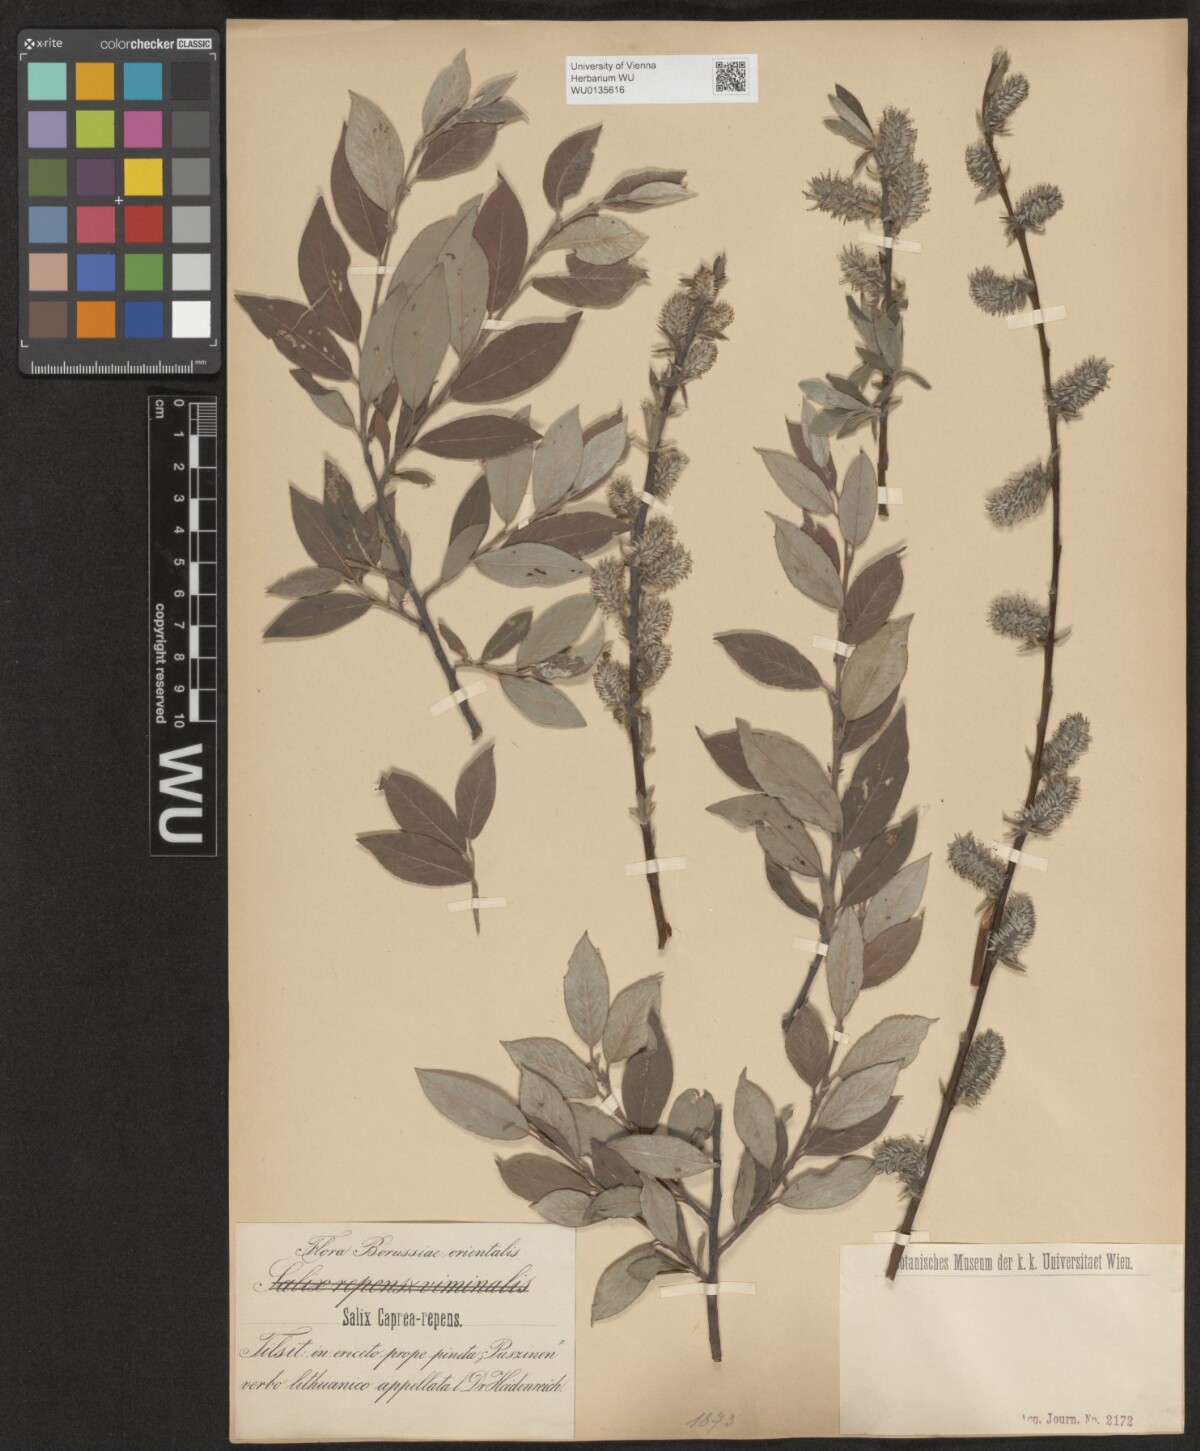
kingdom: Plantae
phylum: Tracheophyta
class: Magnoliopsida
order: Malpighiales
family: Salicaceae
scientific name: Salicaceae
